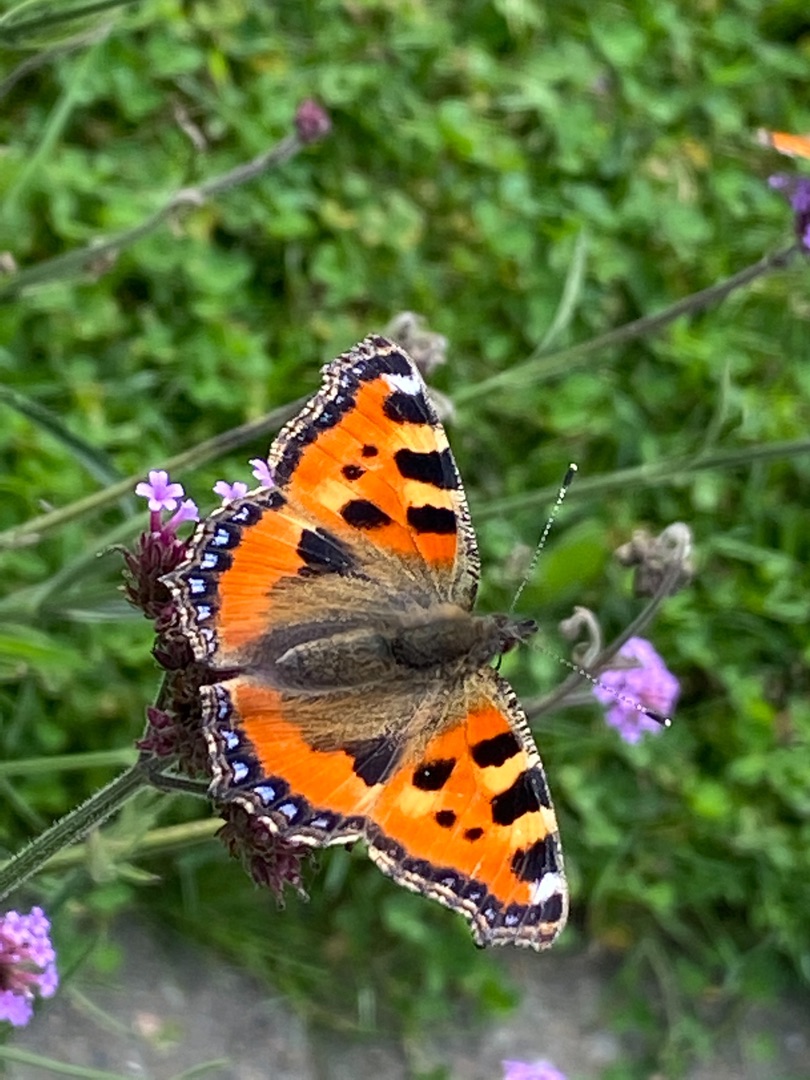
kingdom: Animalia
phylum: Arthropoda
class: Insecta
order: Lepidoptera
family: Nymphalidae
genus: Aglais
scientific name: Aglais urticae
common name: Nældens takvinge
